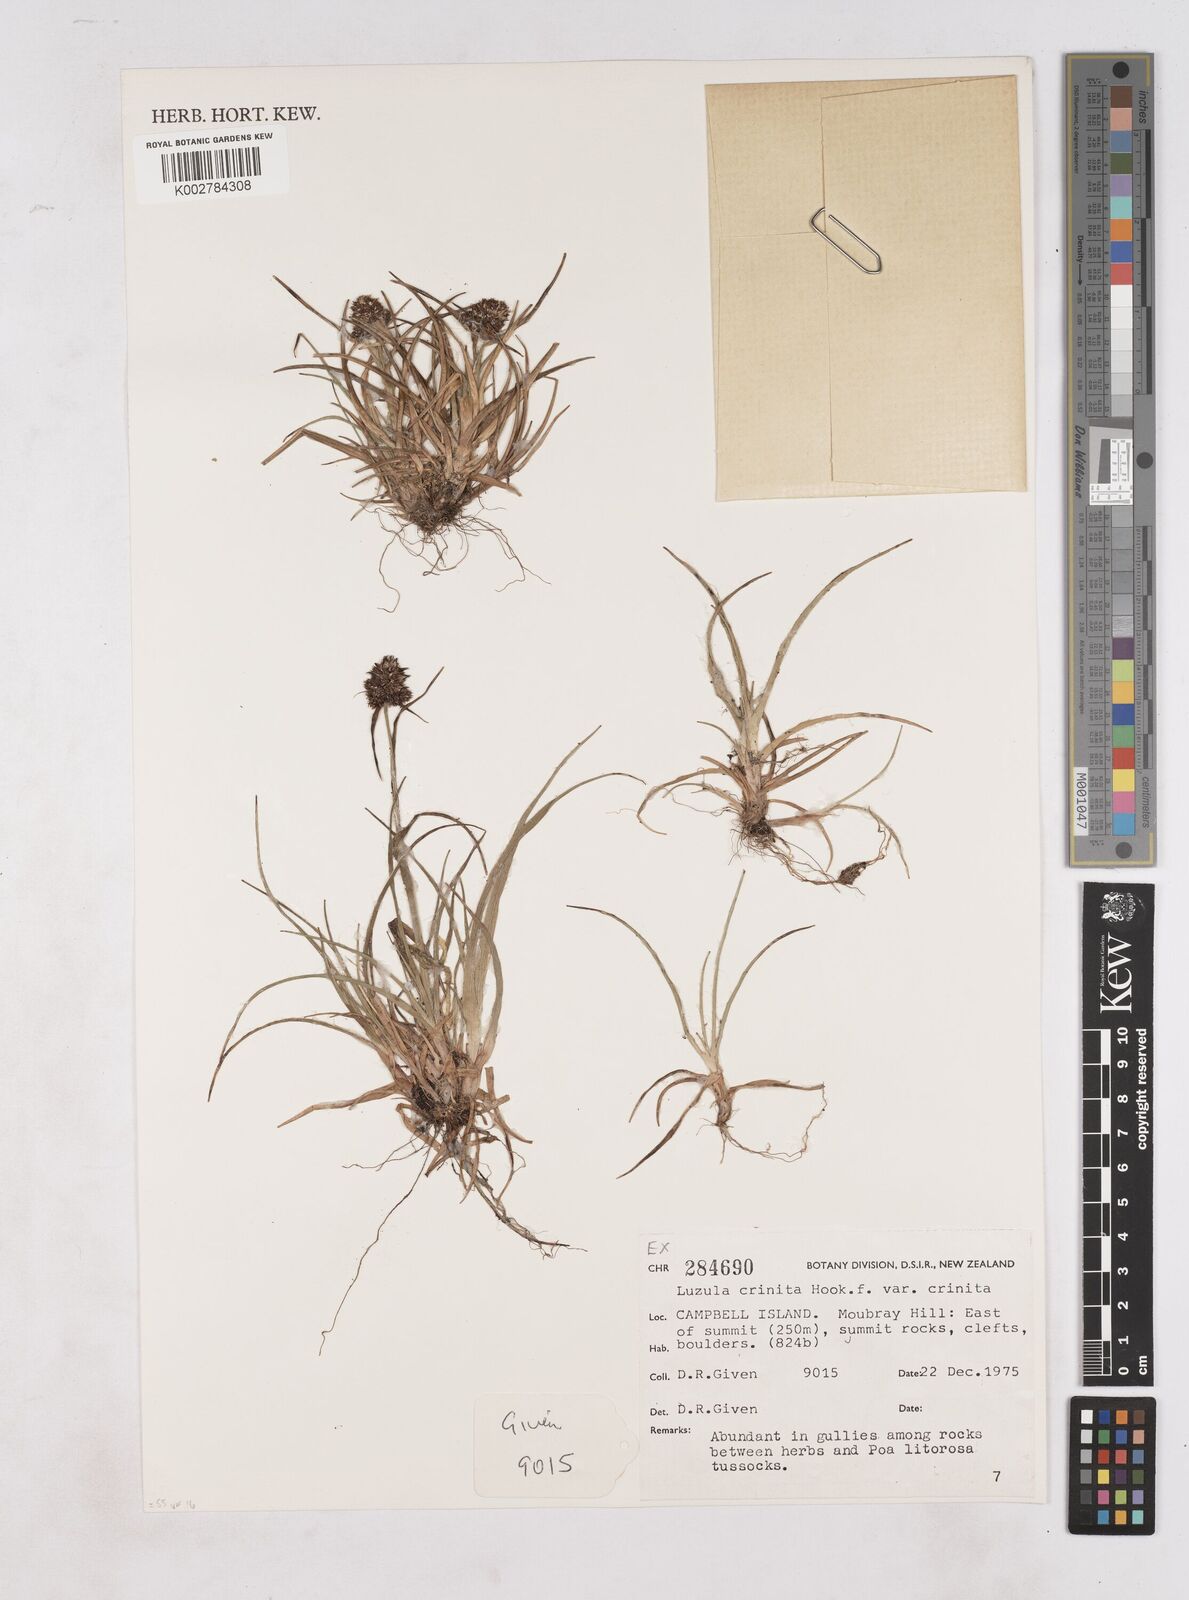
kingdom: Plantae
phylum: Tracheophyta
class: Liliopsida
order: Poales
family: Juncaceae
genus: Luzula
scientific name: Luzula
